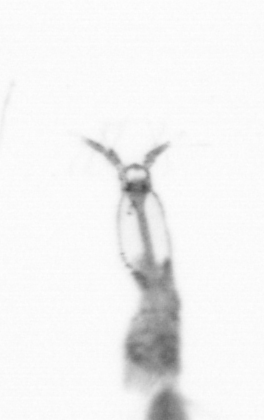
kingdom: Animalia
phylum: Arthropoda
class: Copepoda
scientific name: Copepoda
